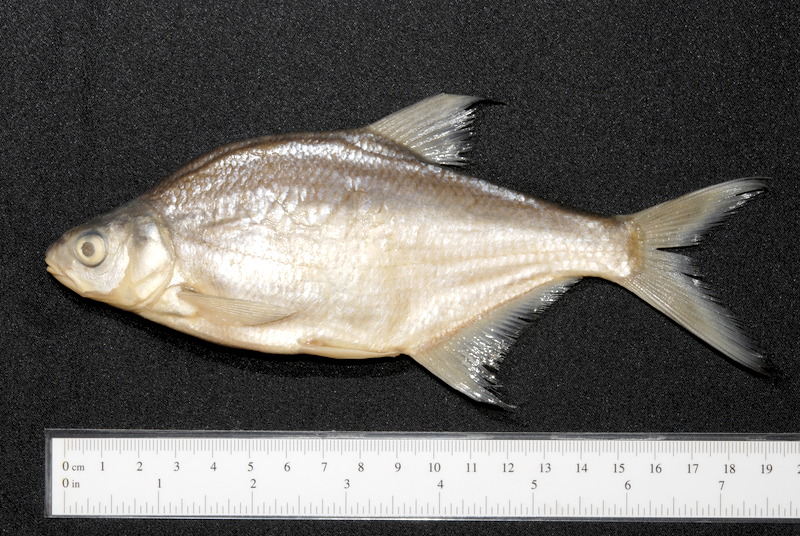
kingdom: Animalia
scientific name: Animalia
